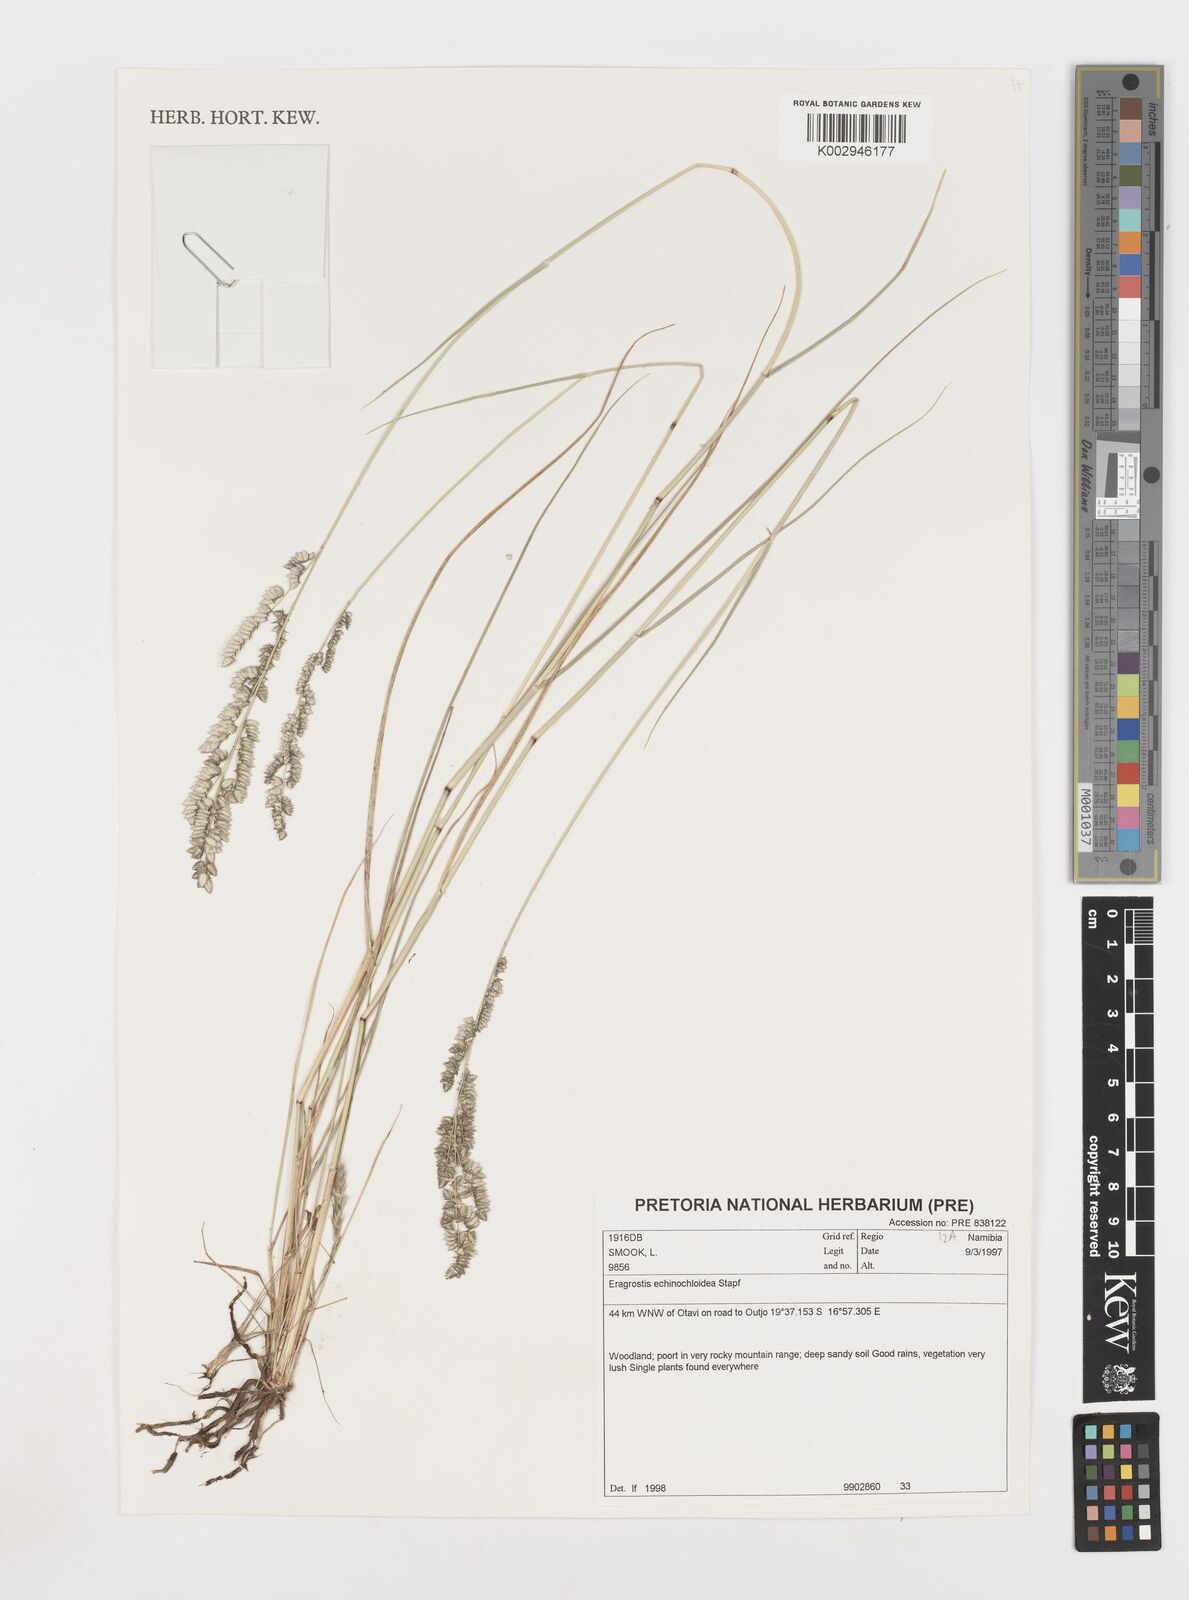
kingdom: Plantae
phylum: Tracheophyta
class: Liliopsida
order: Poales
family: Poaceae
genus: Eragrostis
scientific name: Eragrostis echinochloidea
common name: African lovegrass
